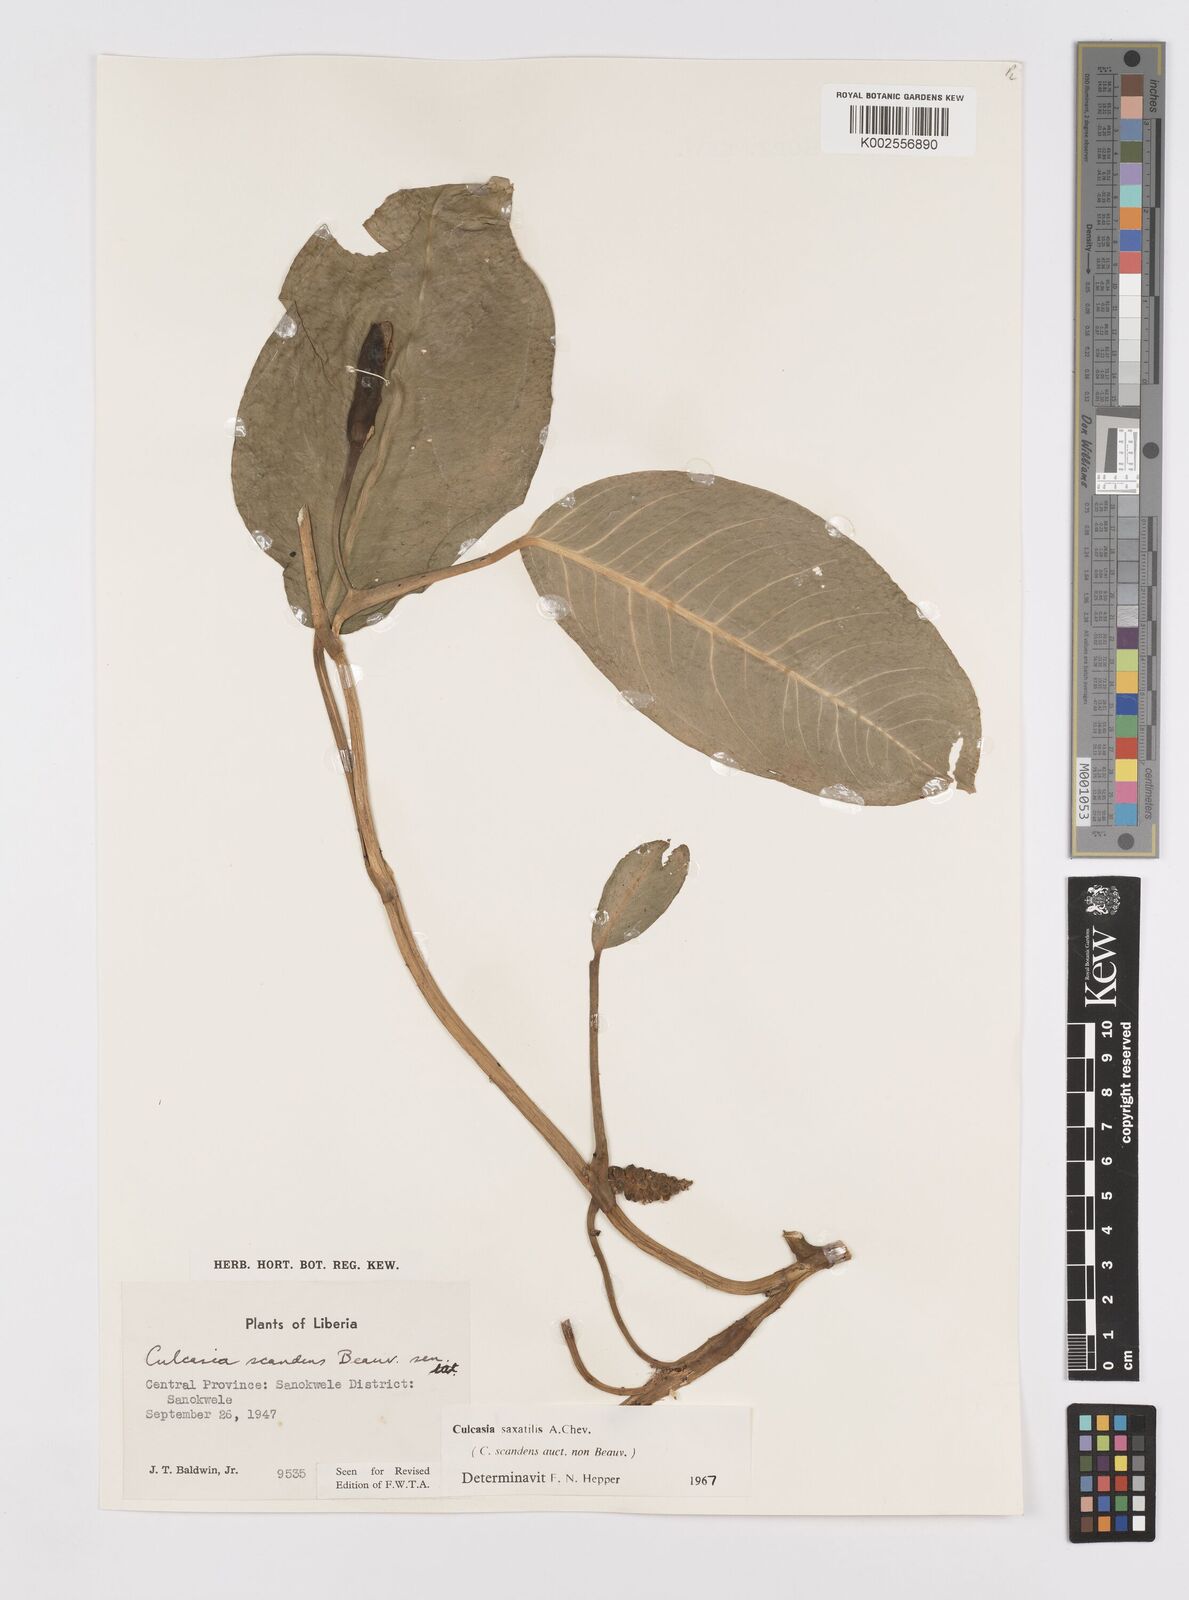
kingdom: Plantae
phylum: Tracheophyta
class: Liliopsida
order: Alismatales
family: Araceae
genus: Culcasia
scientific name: Culcasia scandens
